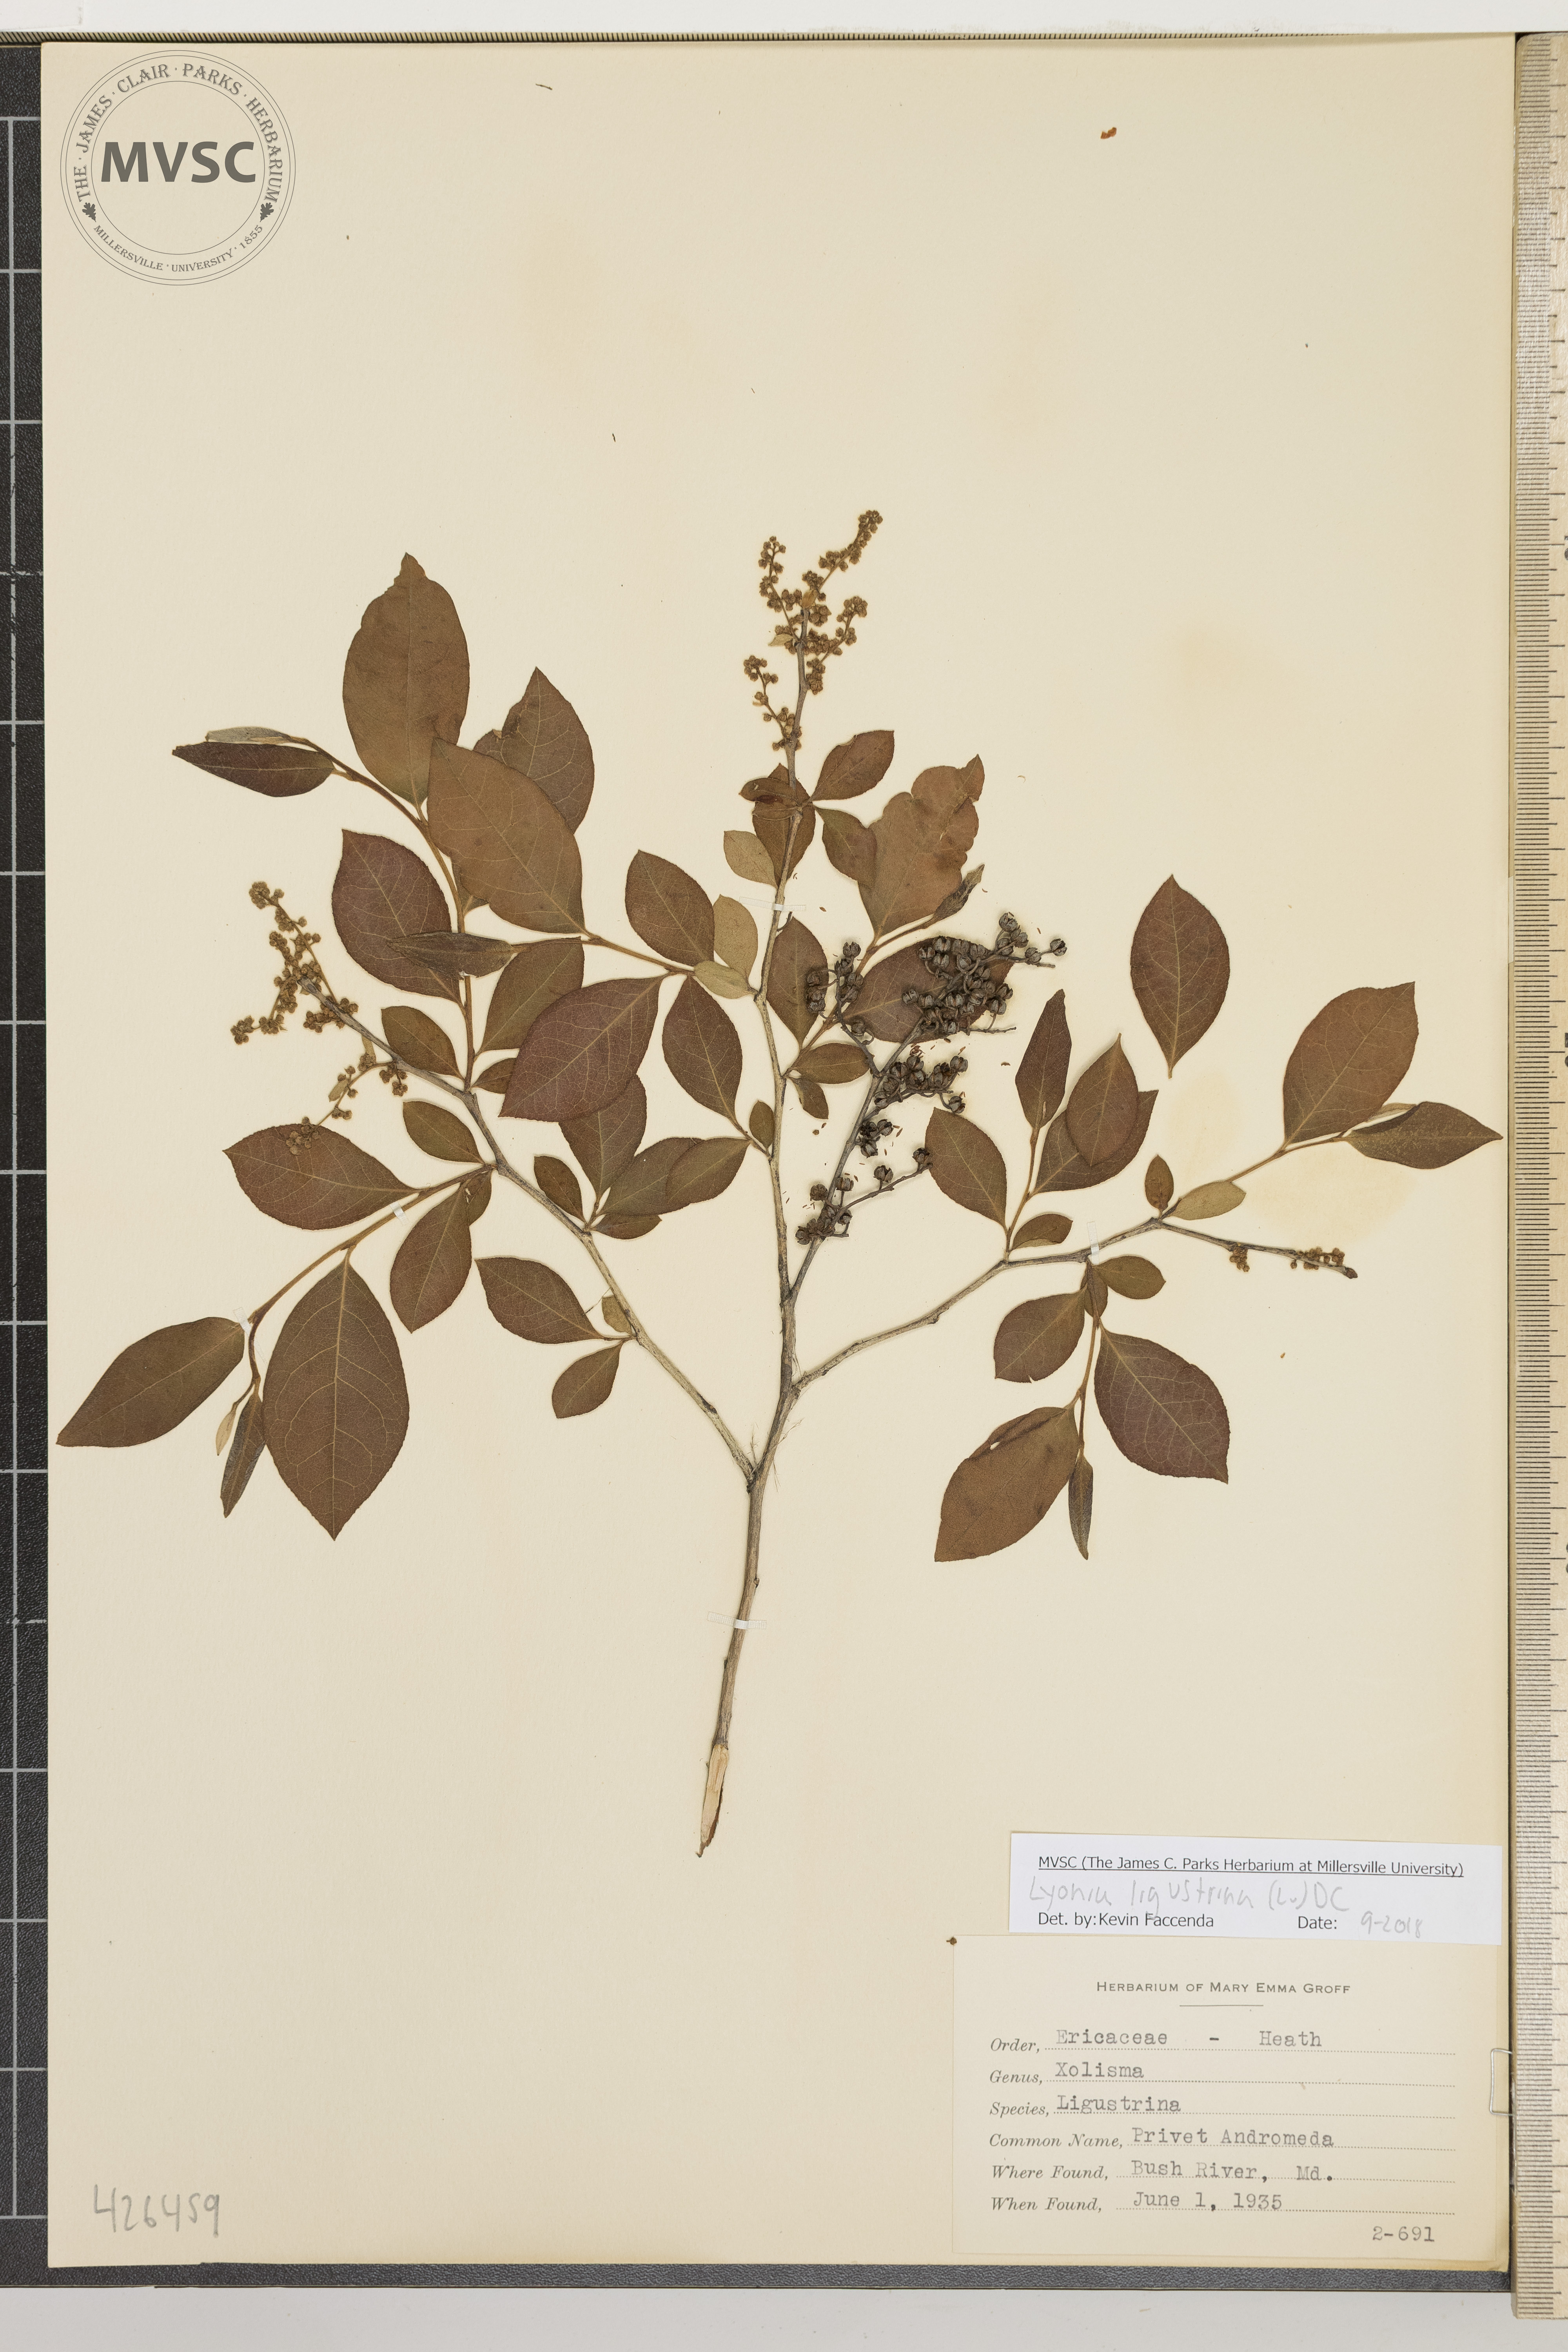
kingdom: Plantae
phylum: Tracheophyta
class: Magnoliopsida
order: Ericales
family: Ericaceae
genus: Lyonia
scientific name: Lyonia ligustrina
